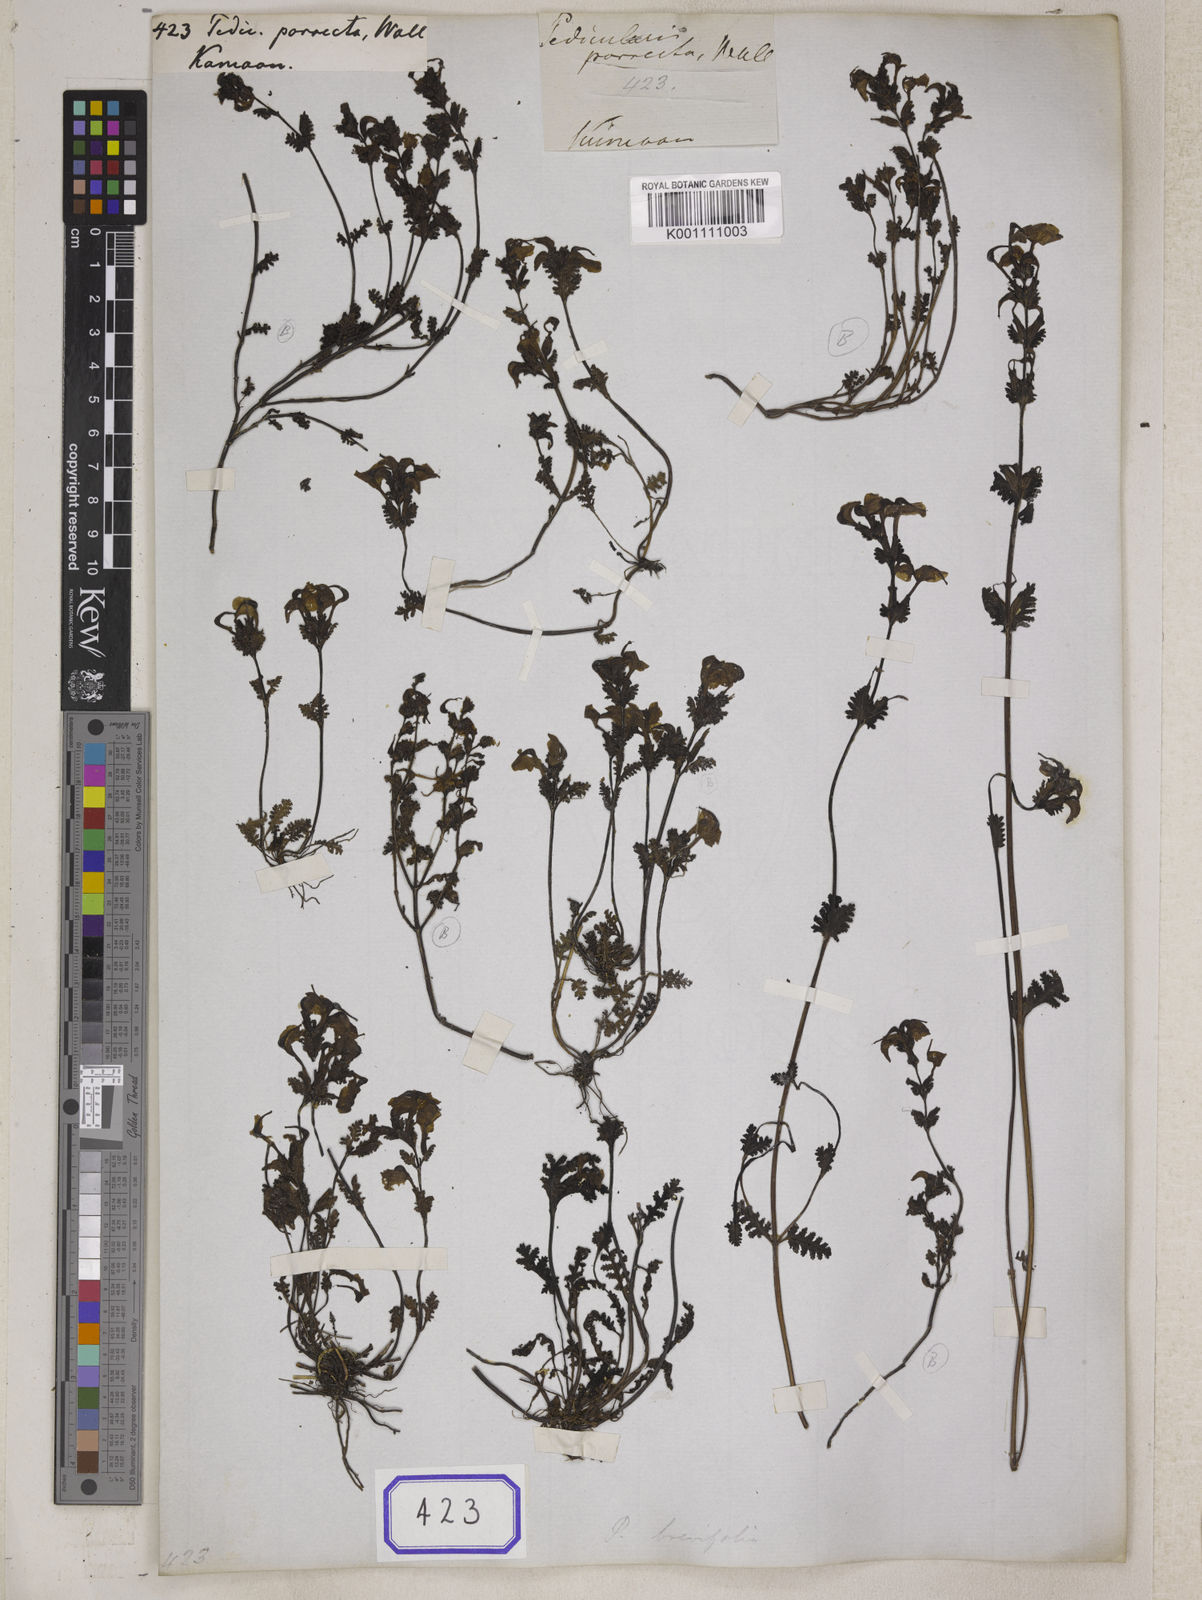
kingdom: Plantae
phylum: Tracheophyta
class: Magnoliopsida
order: Lamiales
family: Orobanchaceae
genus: Pedicularis
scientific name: Pedicularis
